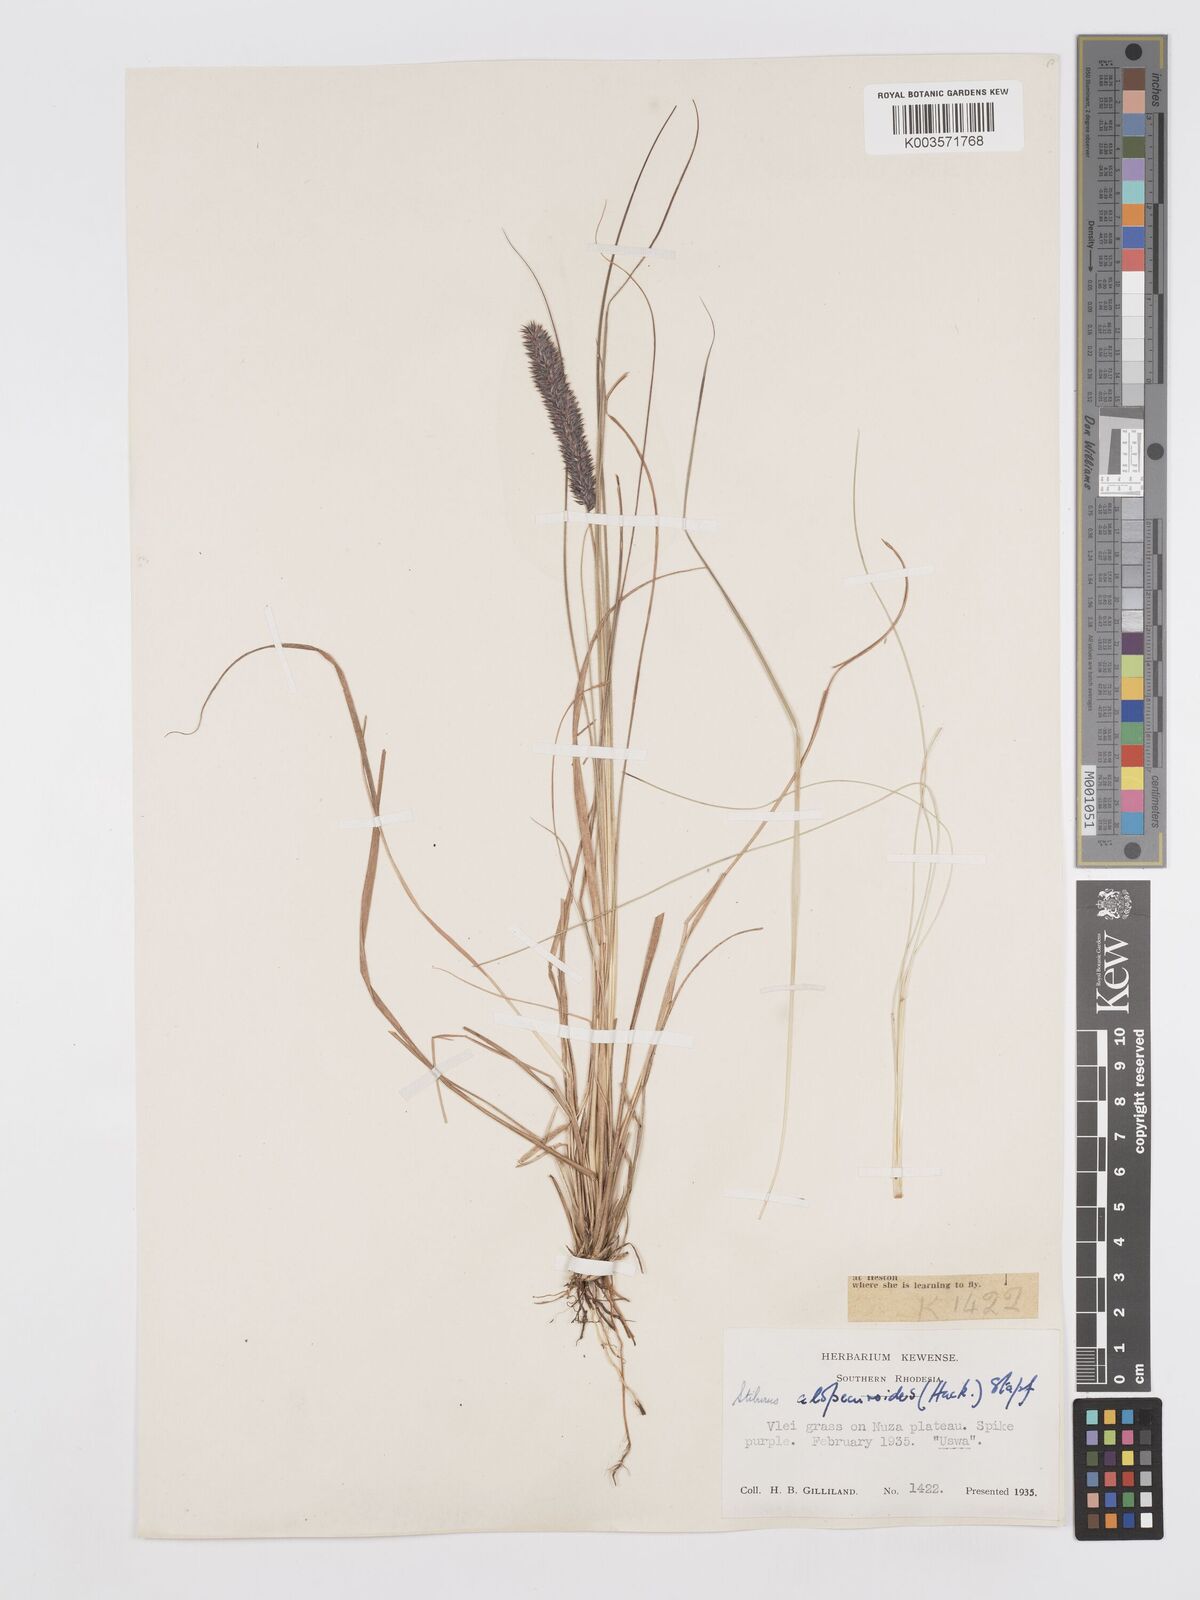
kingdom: Plantae
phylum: Tracheophyta
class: Liliopsida
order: Poales
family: Poaceae
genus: Stiburus
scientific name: Stiburus alopecuroides
